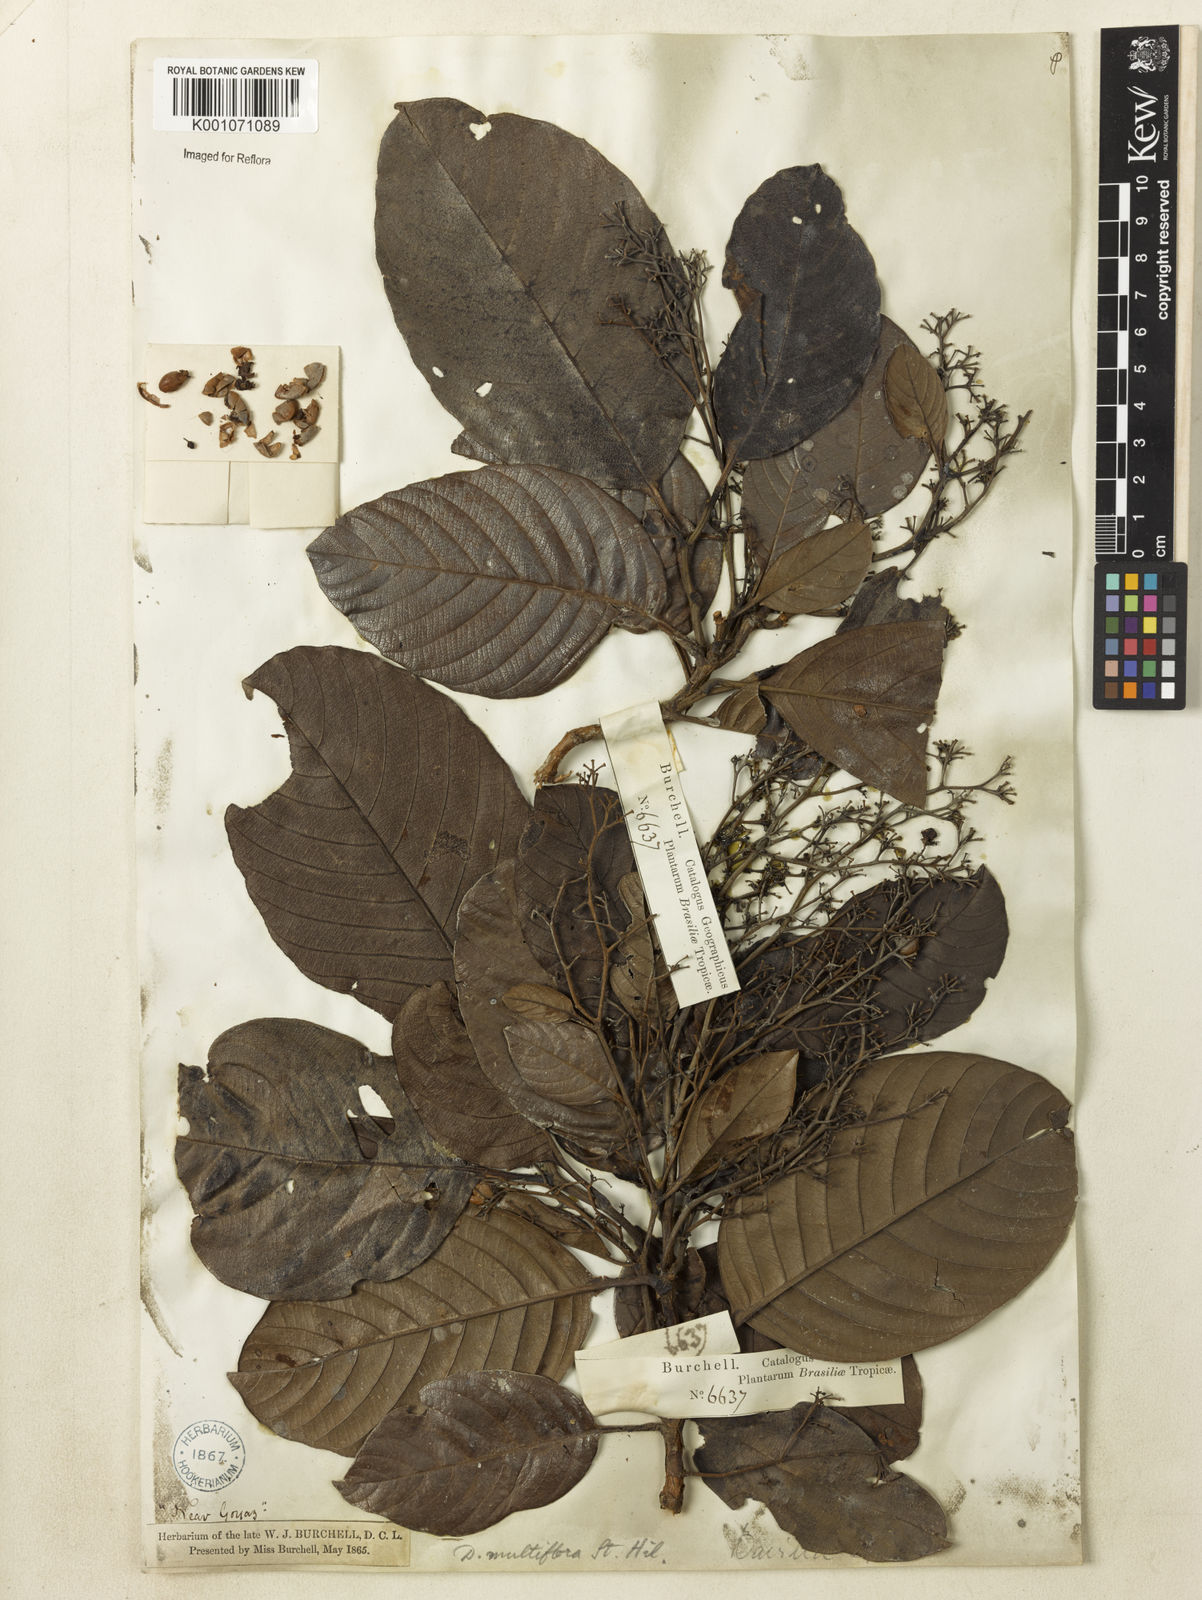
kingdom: Plantae
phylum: Tracheophyta
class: Magnoliopsida
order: Dilleniales
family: Dilleniaceae
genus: Davilla
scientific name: Davilla nitida
